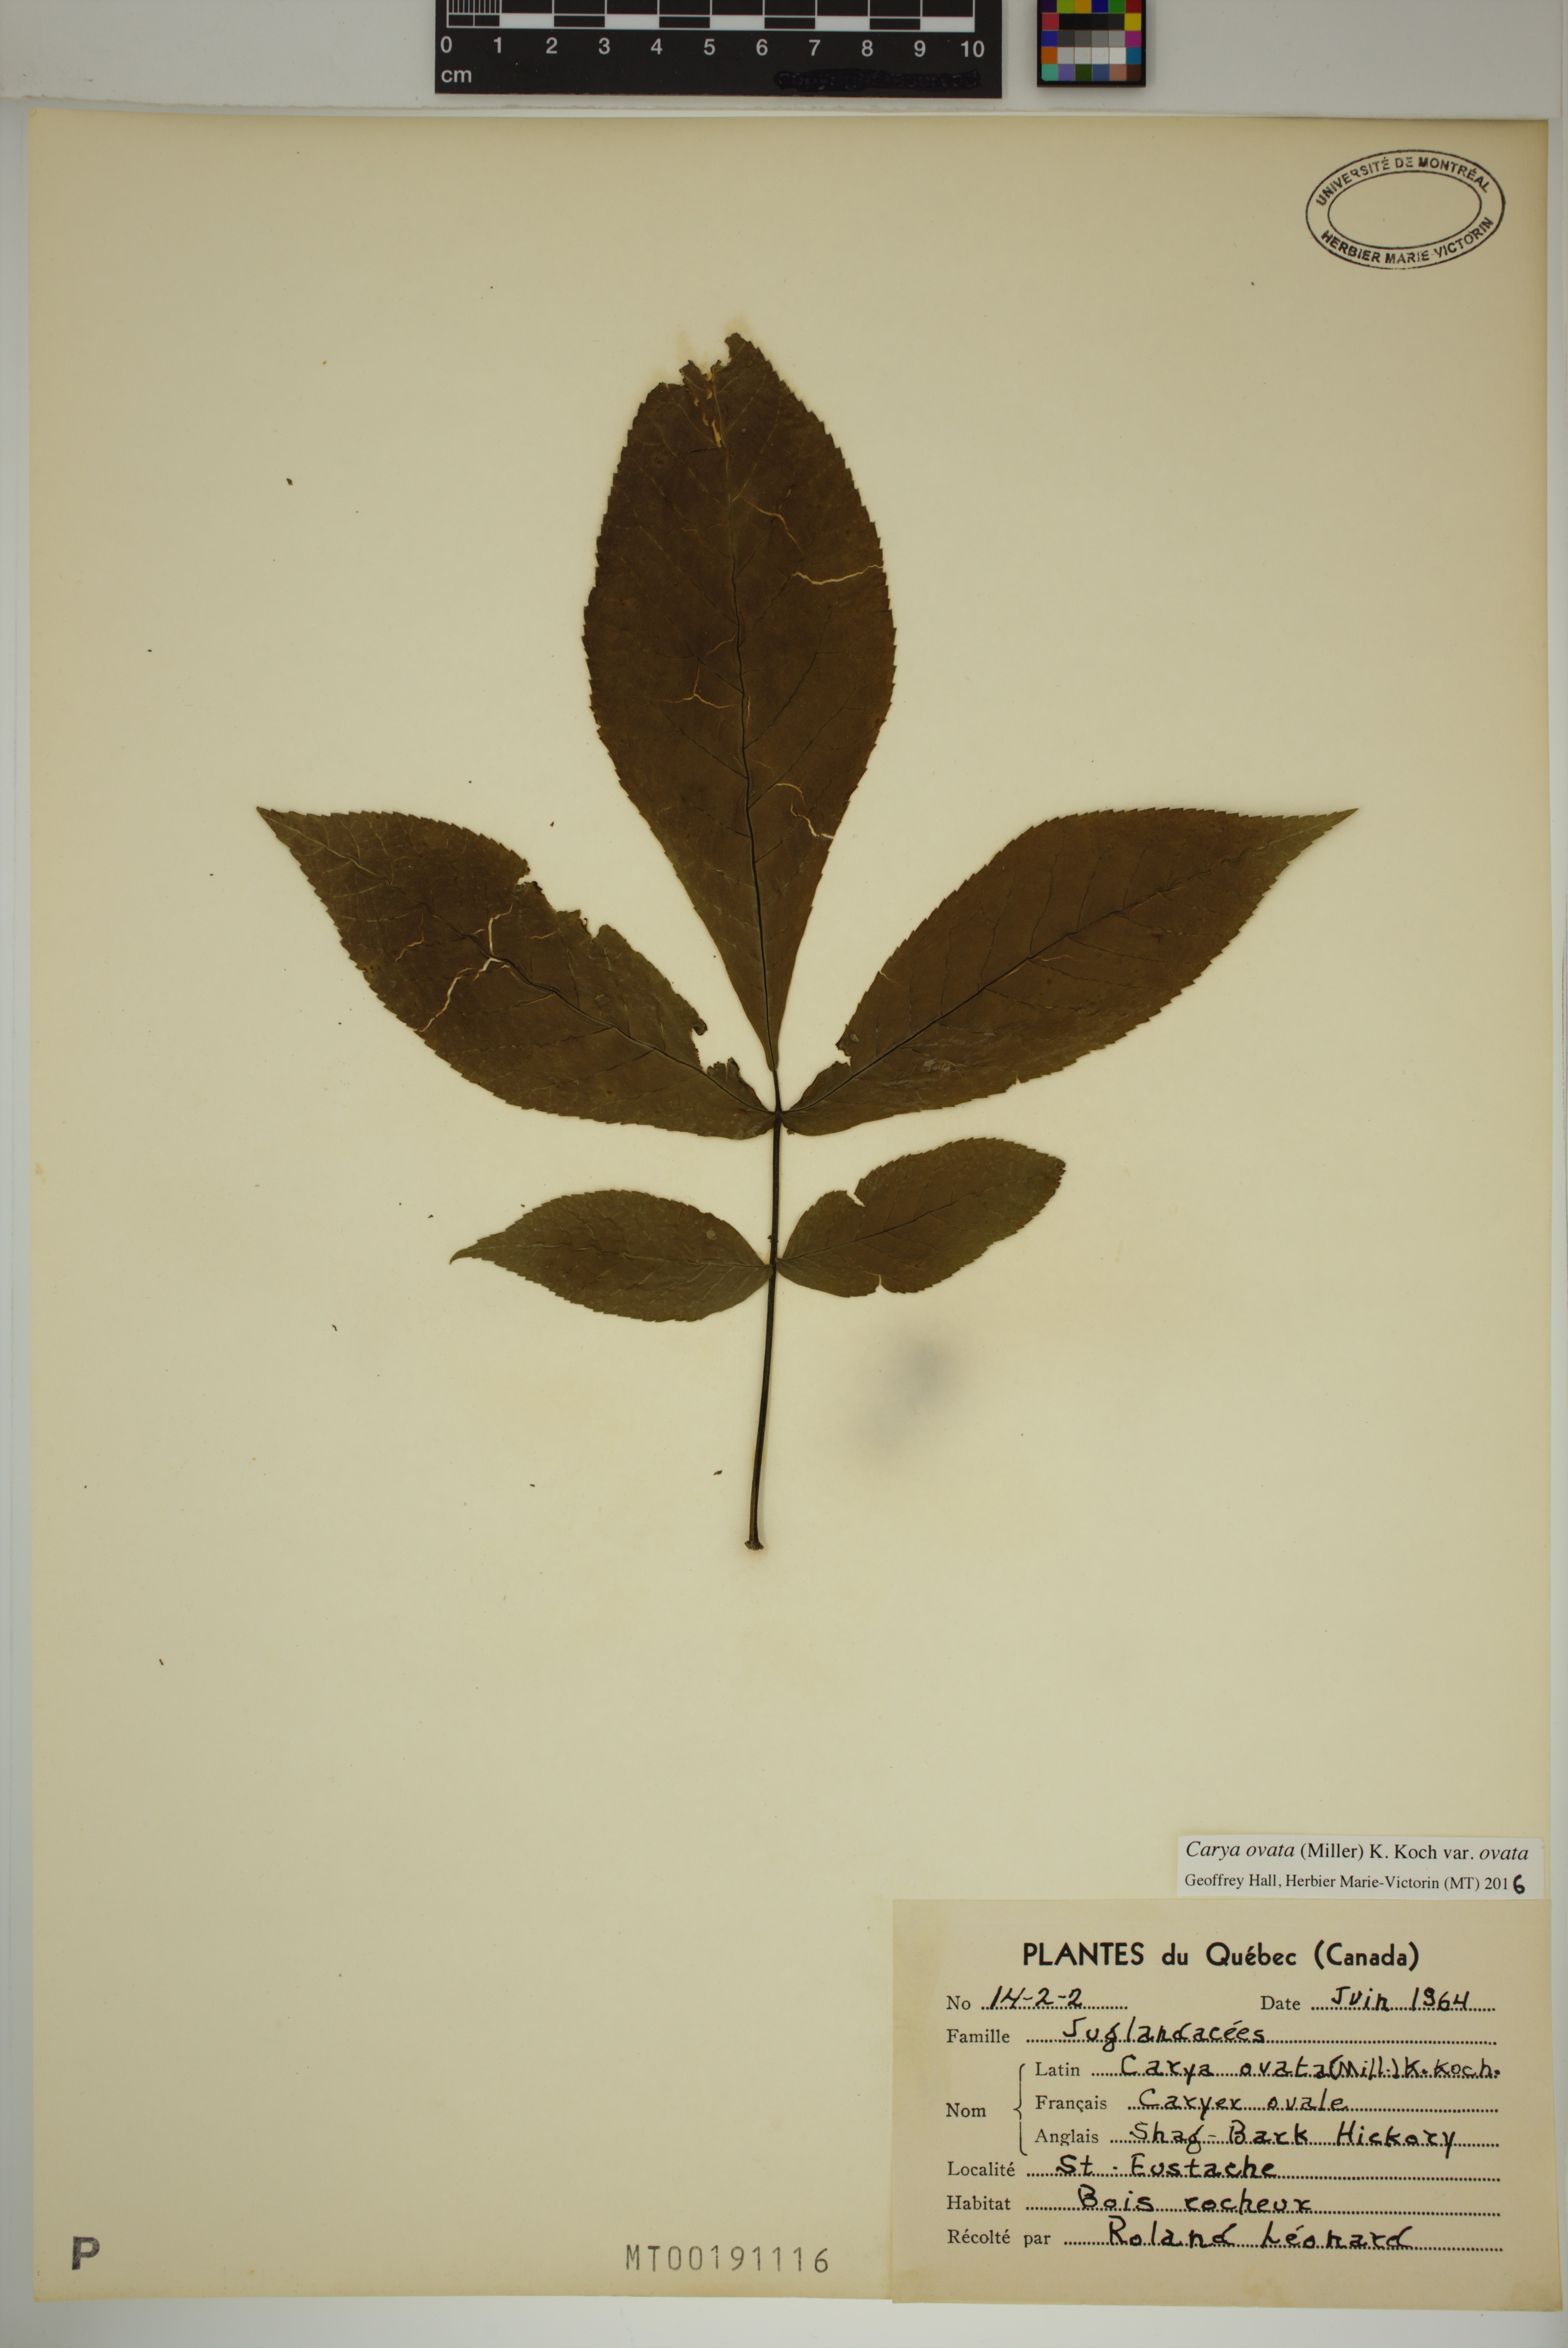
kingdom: Plantae
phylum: Tracheophyta
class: Magnoliopsida
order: Fagales
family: Juglandaceae
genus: Carya
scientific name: Carya ovata
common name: Shagbark hickory
